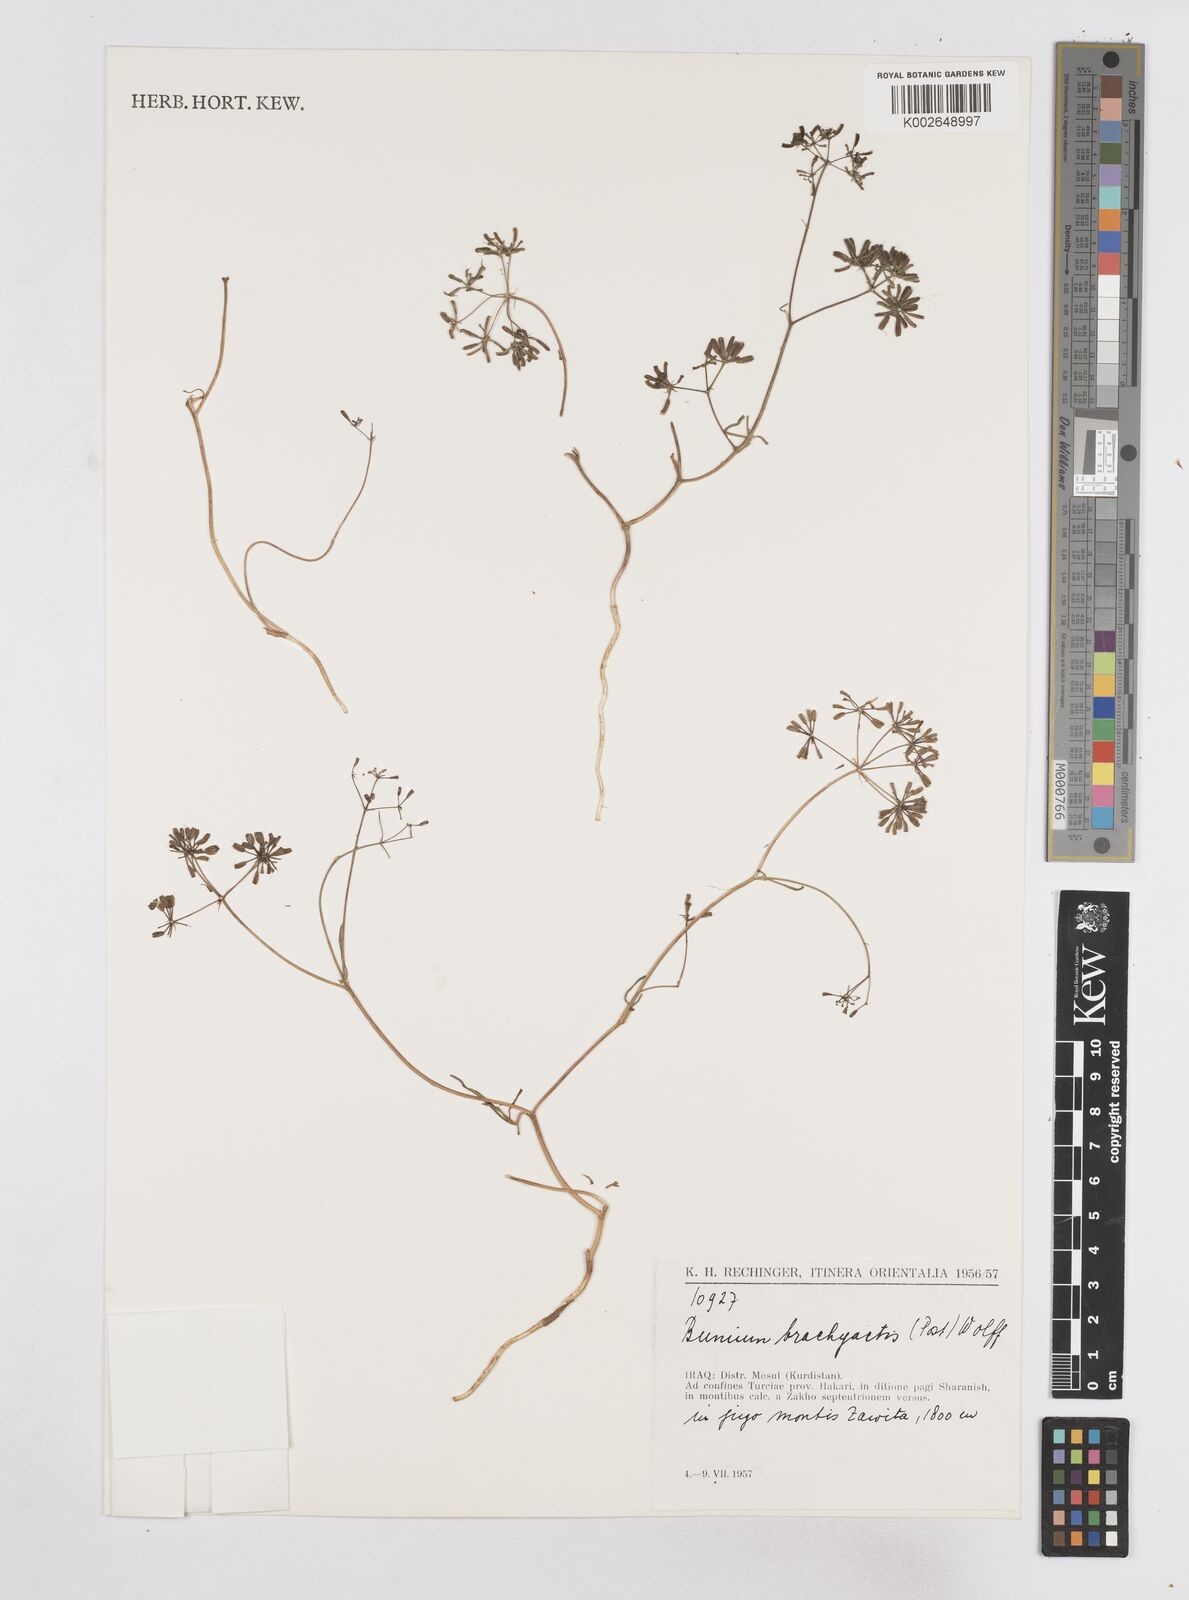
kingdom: Plantae
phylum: Tracheophyta
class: Magnoliopsida
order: Apiales
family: Apiaceae
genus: Bunium
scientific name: Bunium brachyactis
